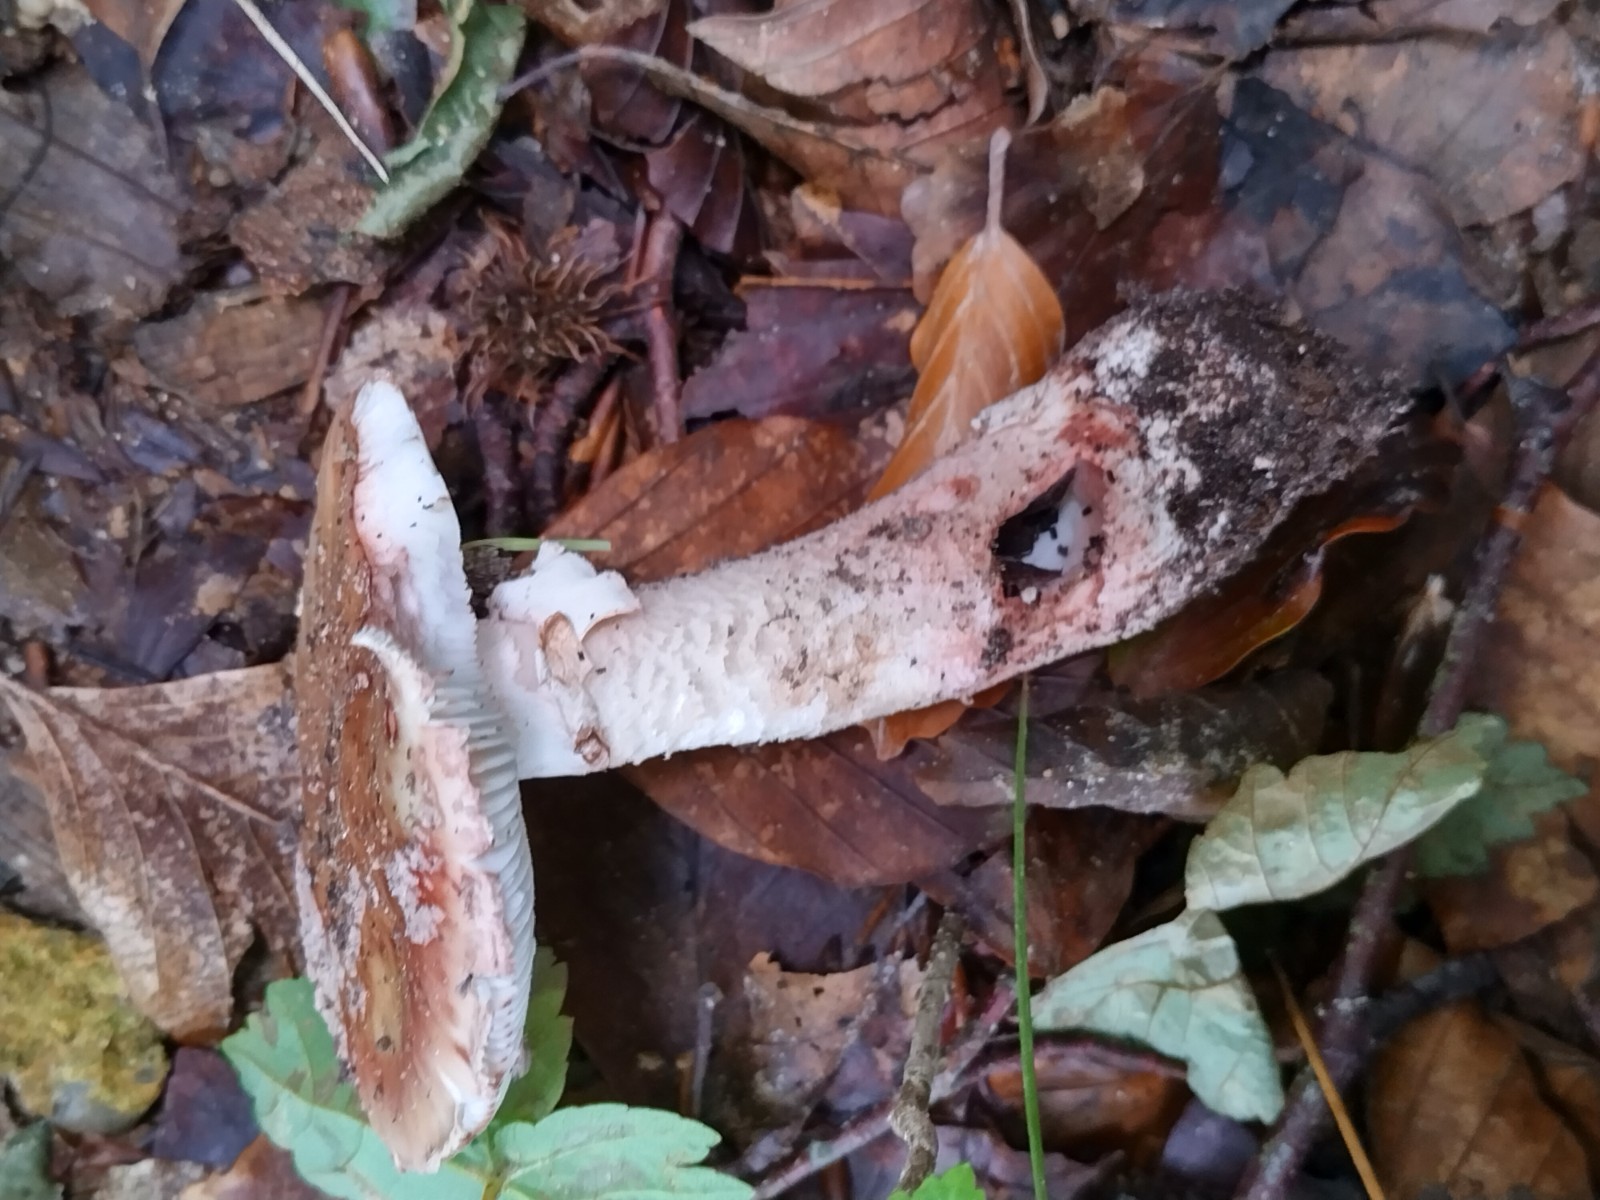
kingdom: Fungi
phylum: Basidiomycota
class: Agaricomycetes
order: Agaricales
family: Amanitaceae
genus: Amanita
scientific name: Amanita rubescens
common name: rødmende fluesvamp
